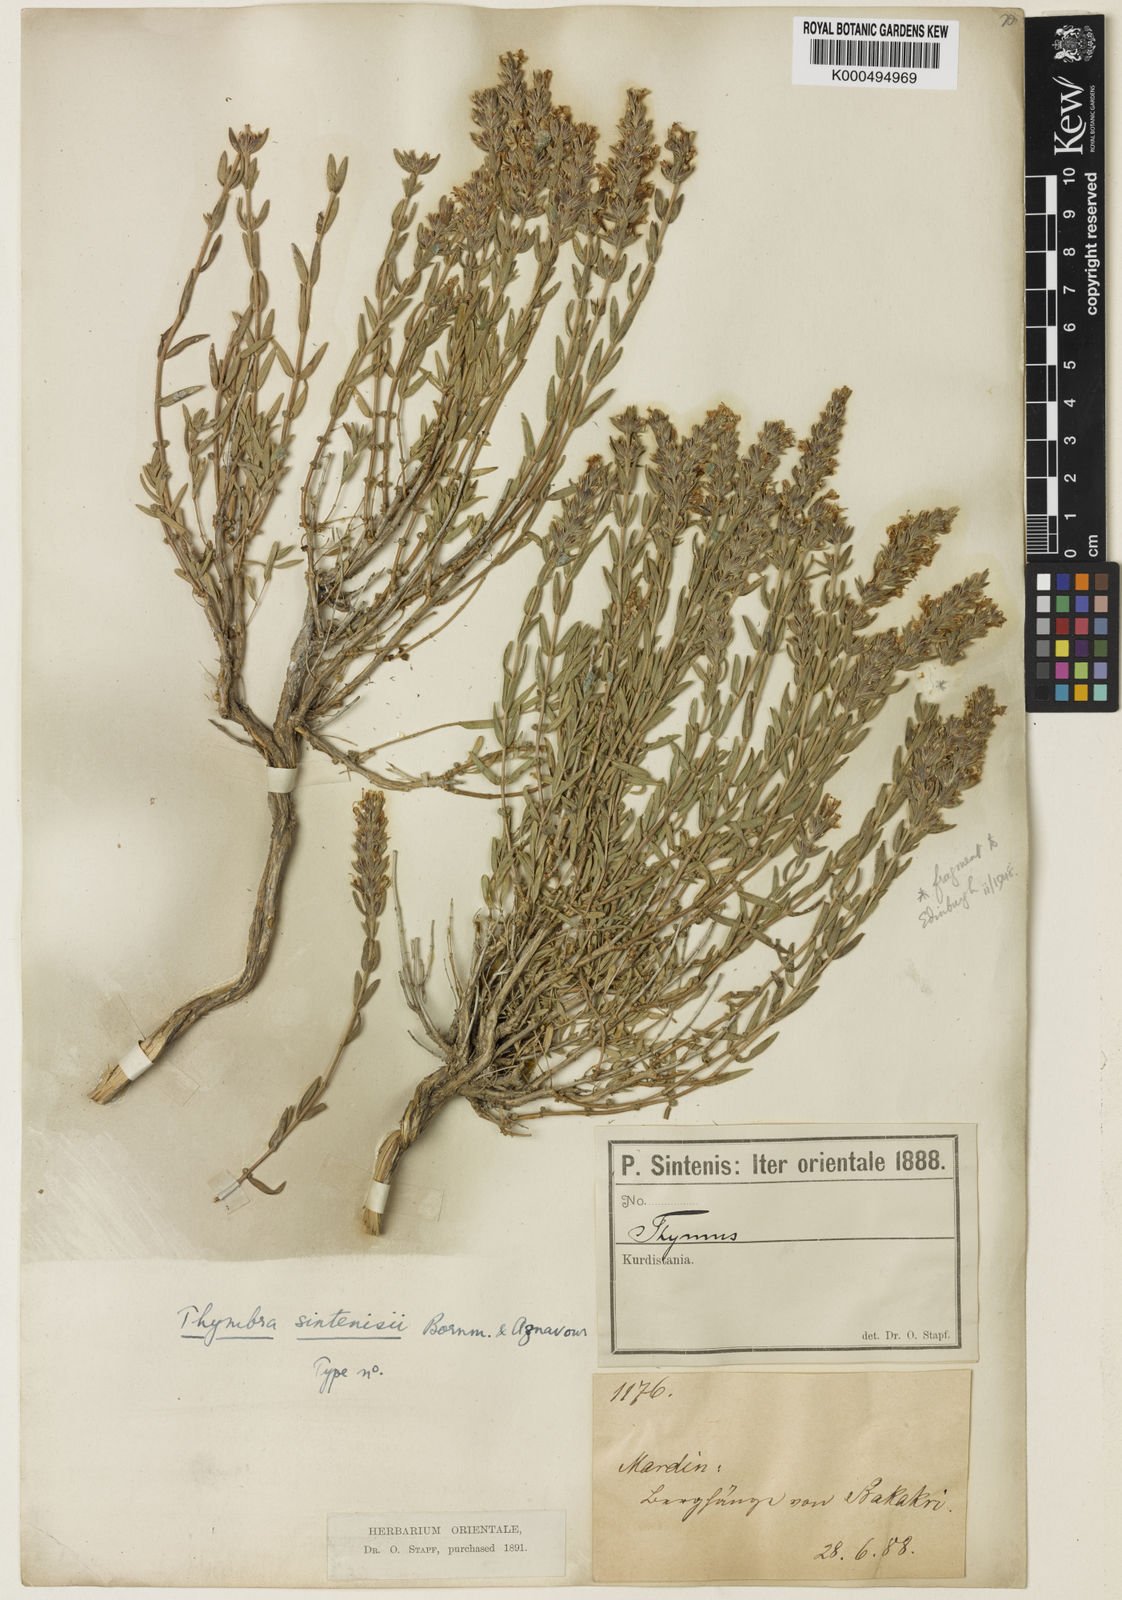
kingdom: Plantae
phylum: Tracheophyta
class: Magnoliopsida
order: Lamiales
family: Lamiaceae
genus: Thymbra
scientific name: Thymbra sintenisii
